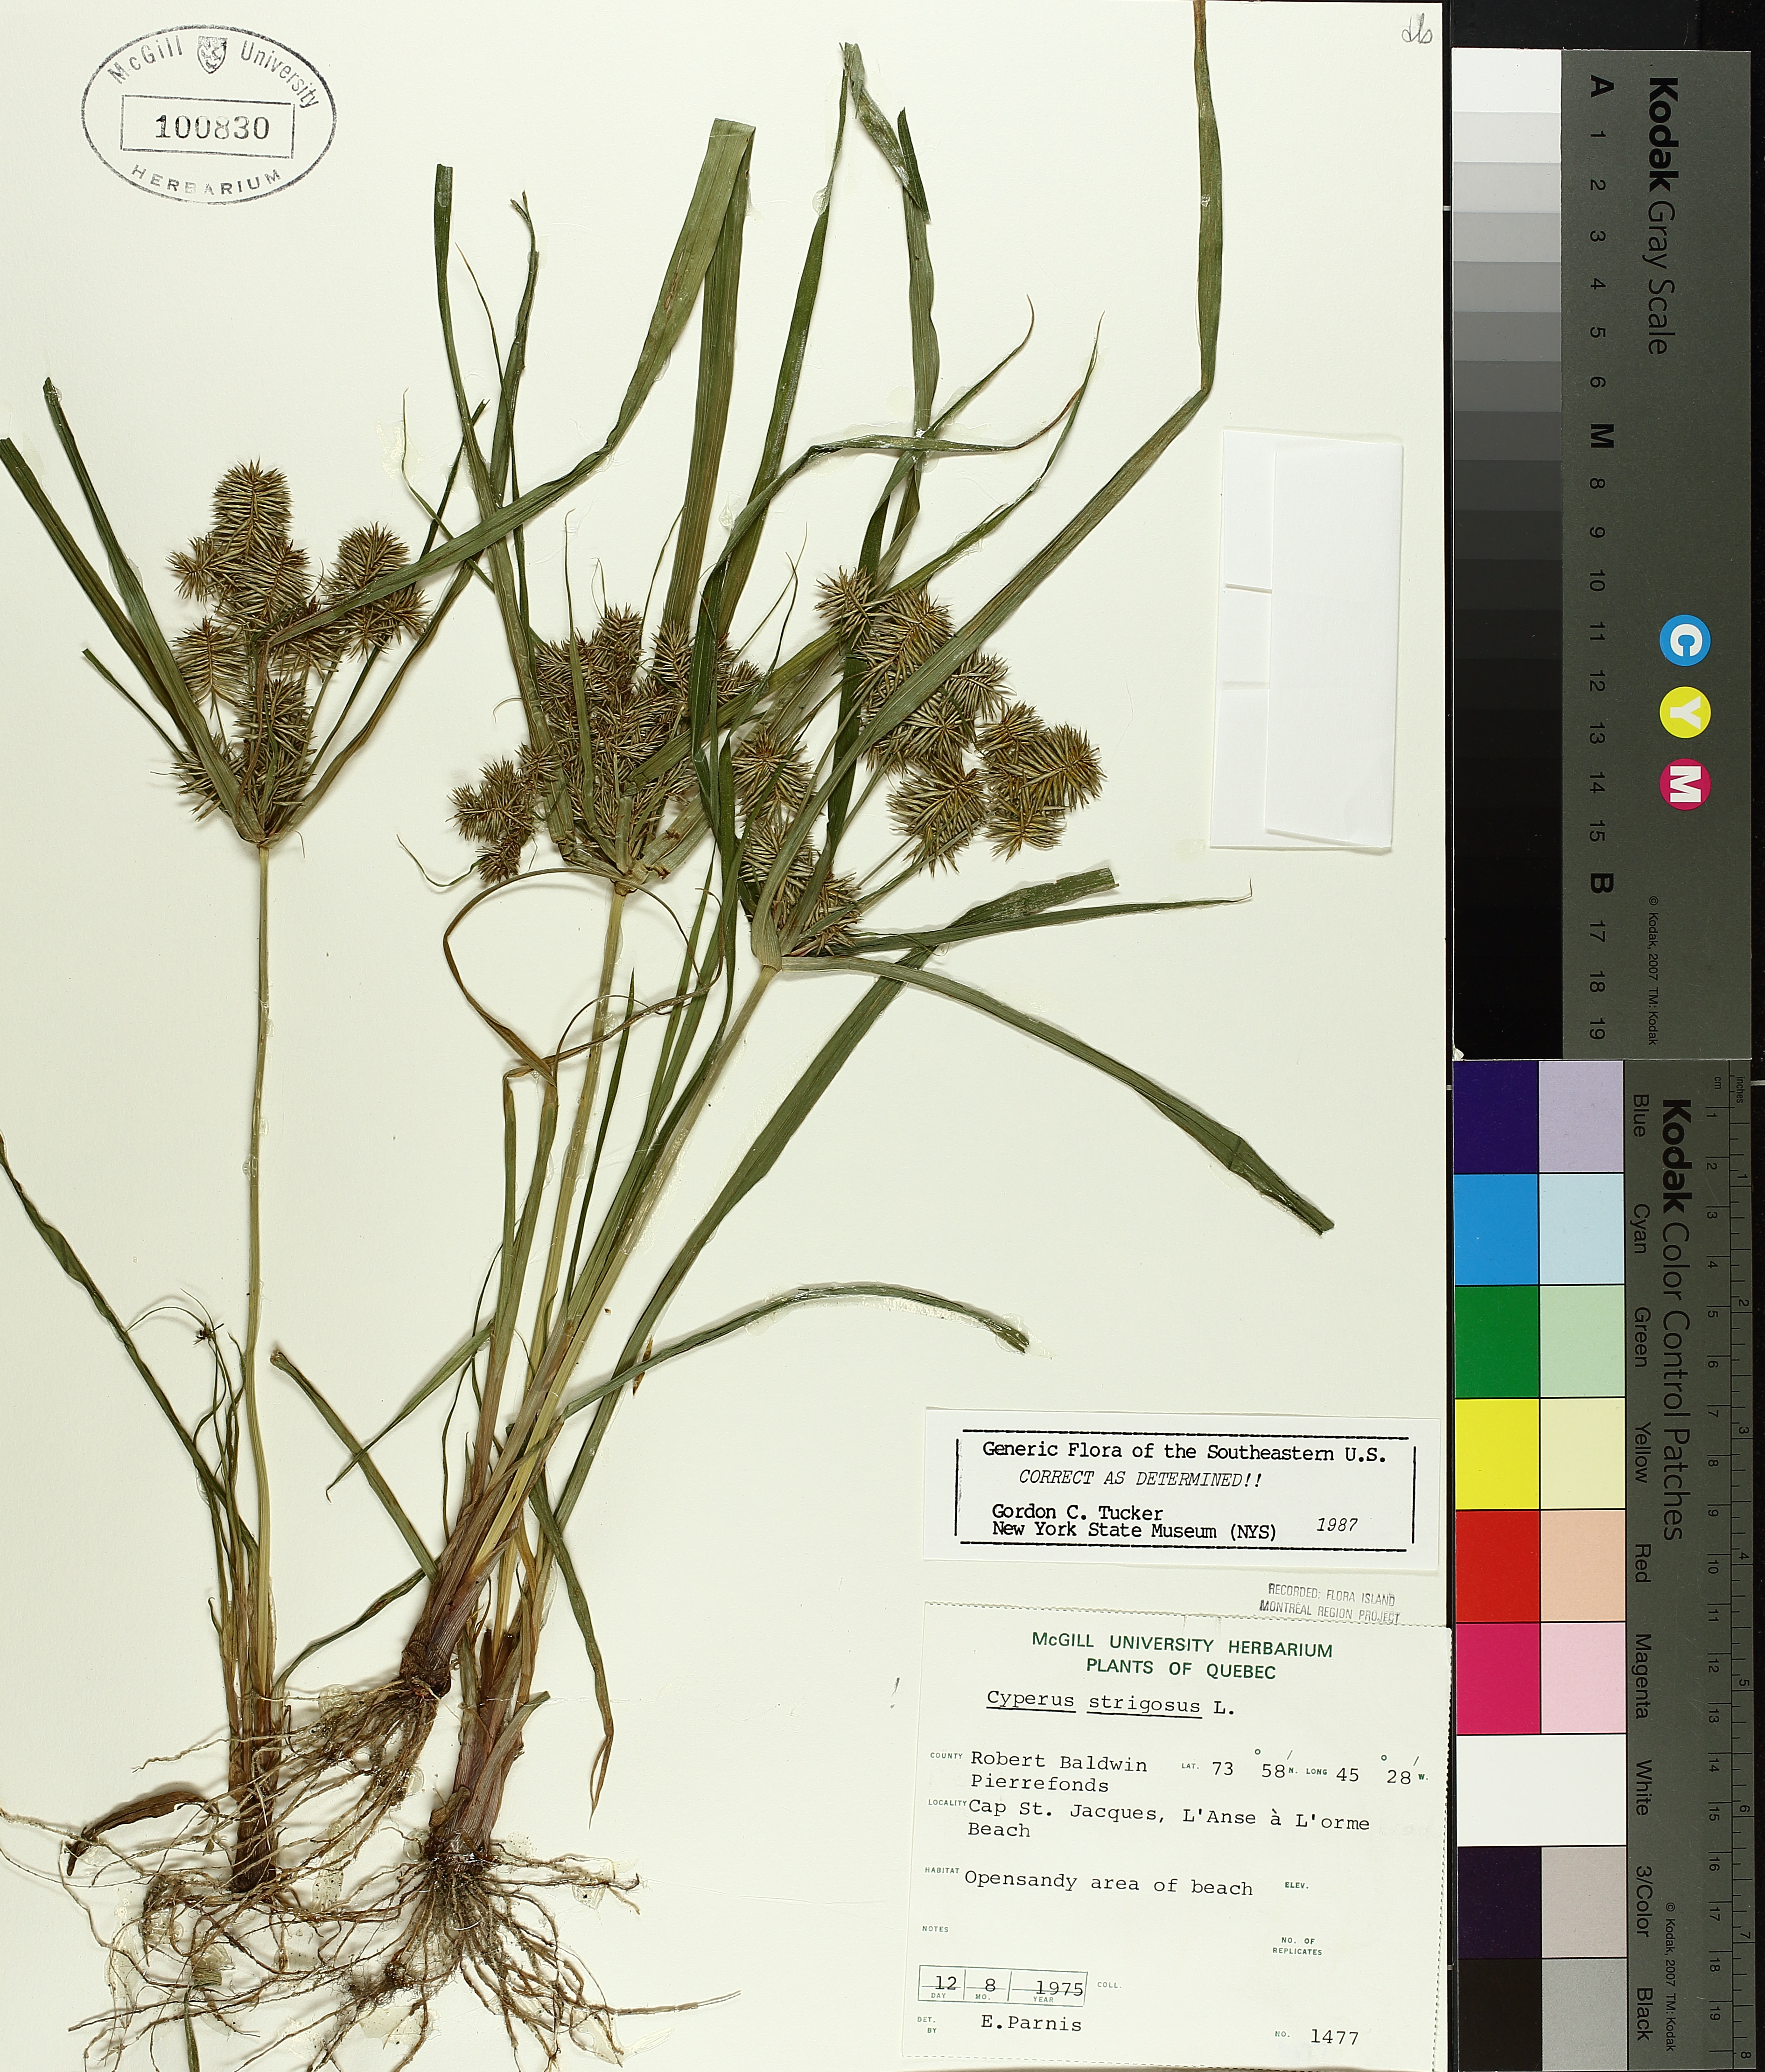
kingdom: Plantae
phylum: Tracheophyta
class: Liliopsida
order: Poales
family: Cyperaceae
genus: Cyperus
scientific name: Cyperus strigosus
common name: False nutsedge
